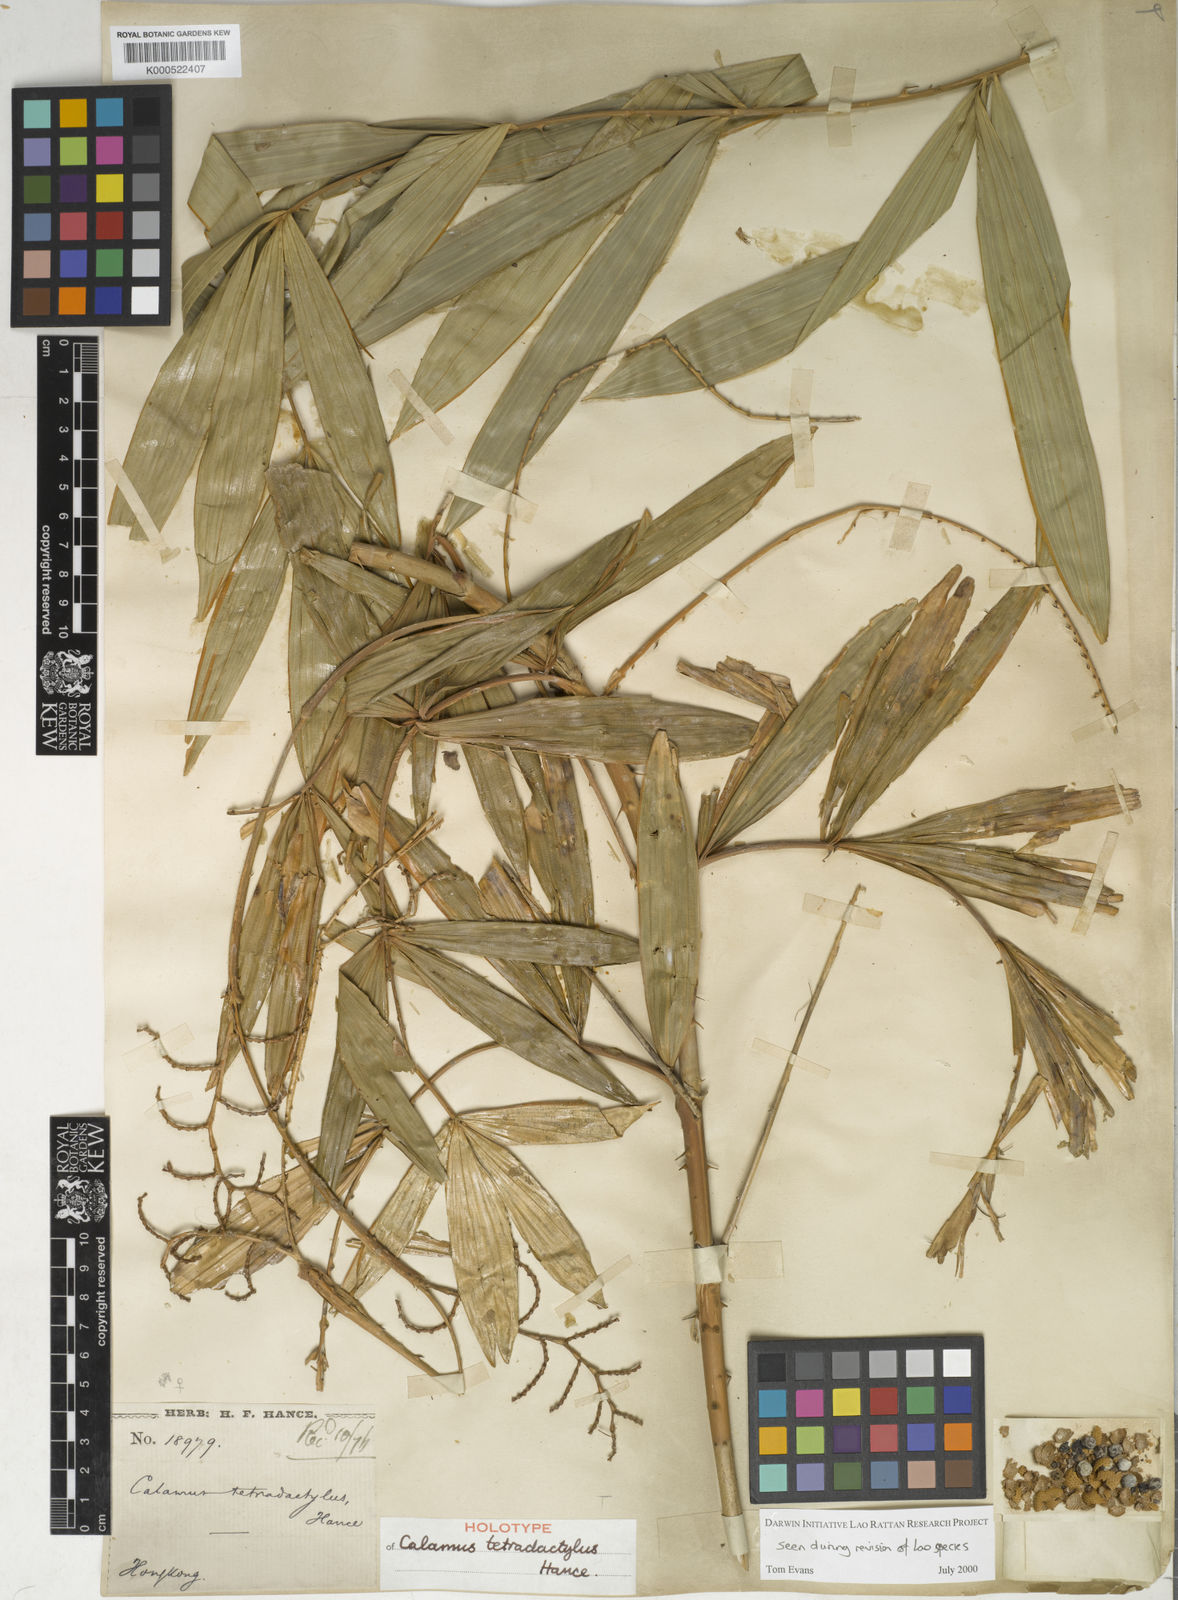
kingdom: Plantae
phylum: Tracheophyta
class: Liliopsida
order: Arecales
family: Arecaceae
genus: Calamus
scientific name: Calamus tetradactylus
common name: White rattan
